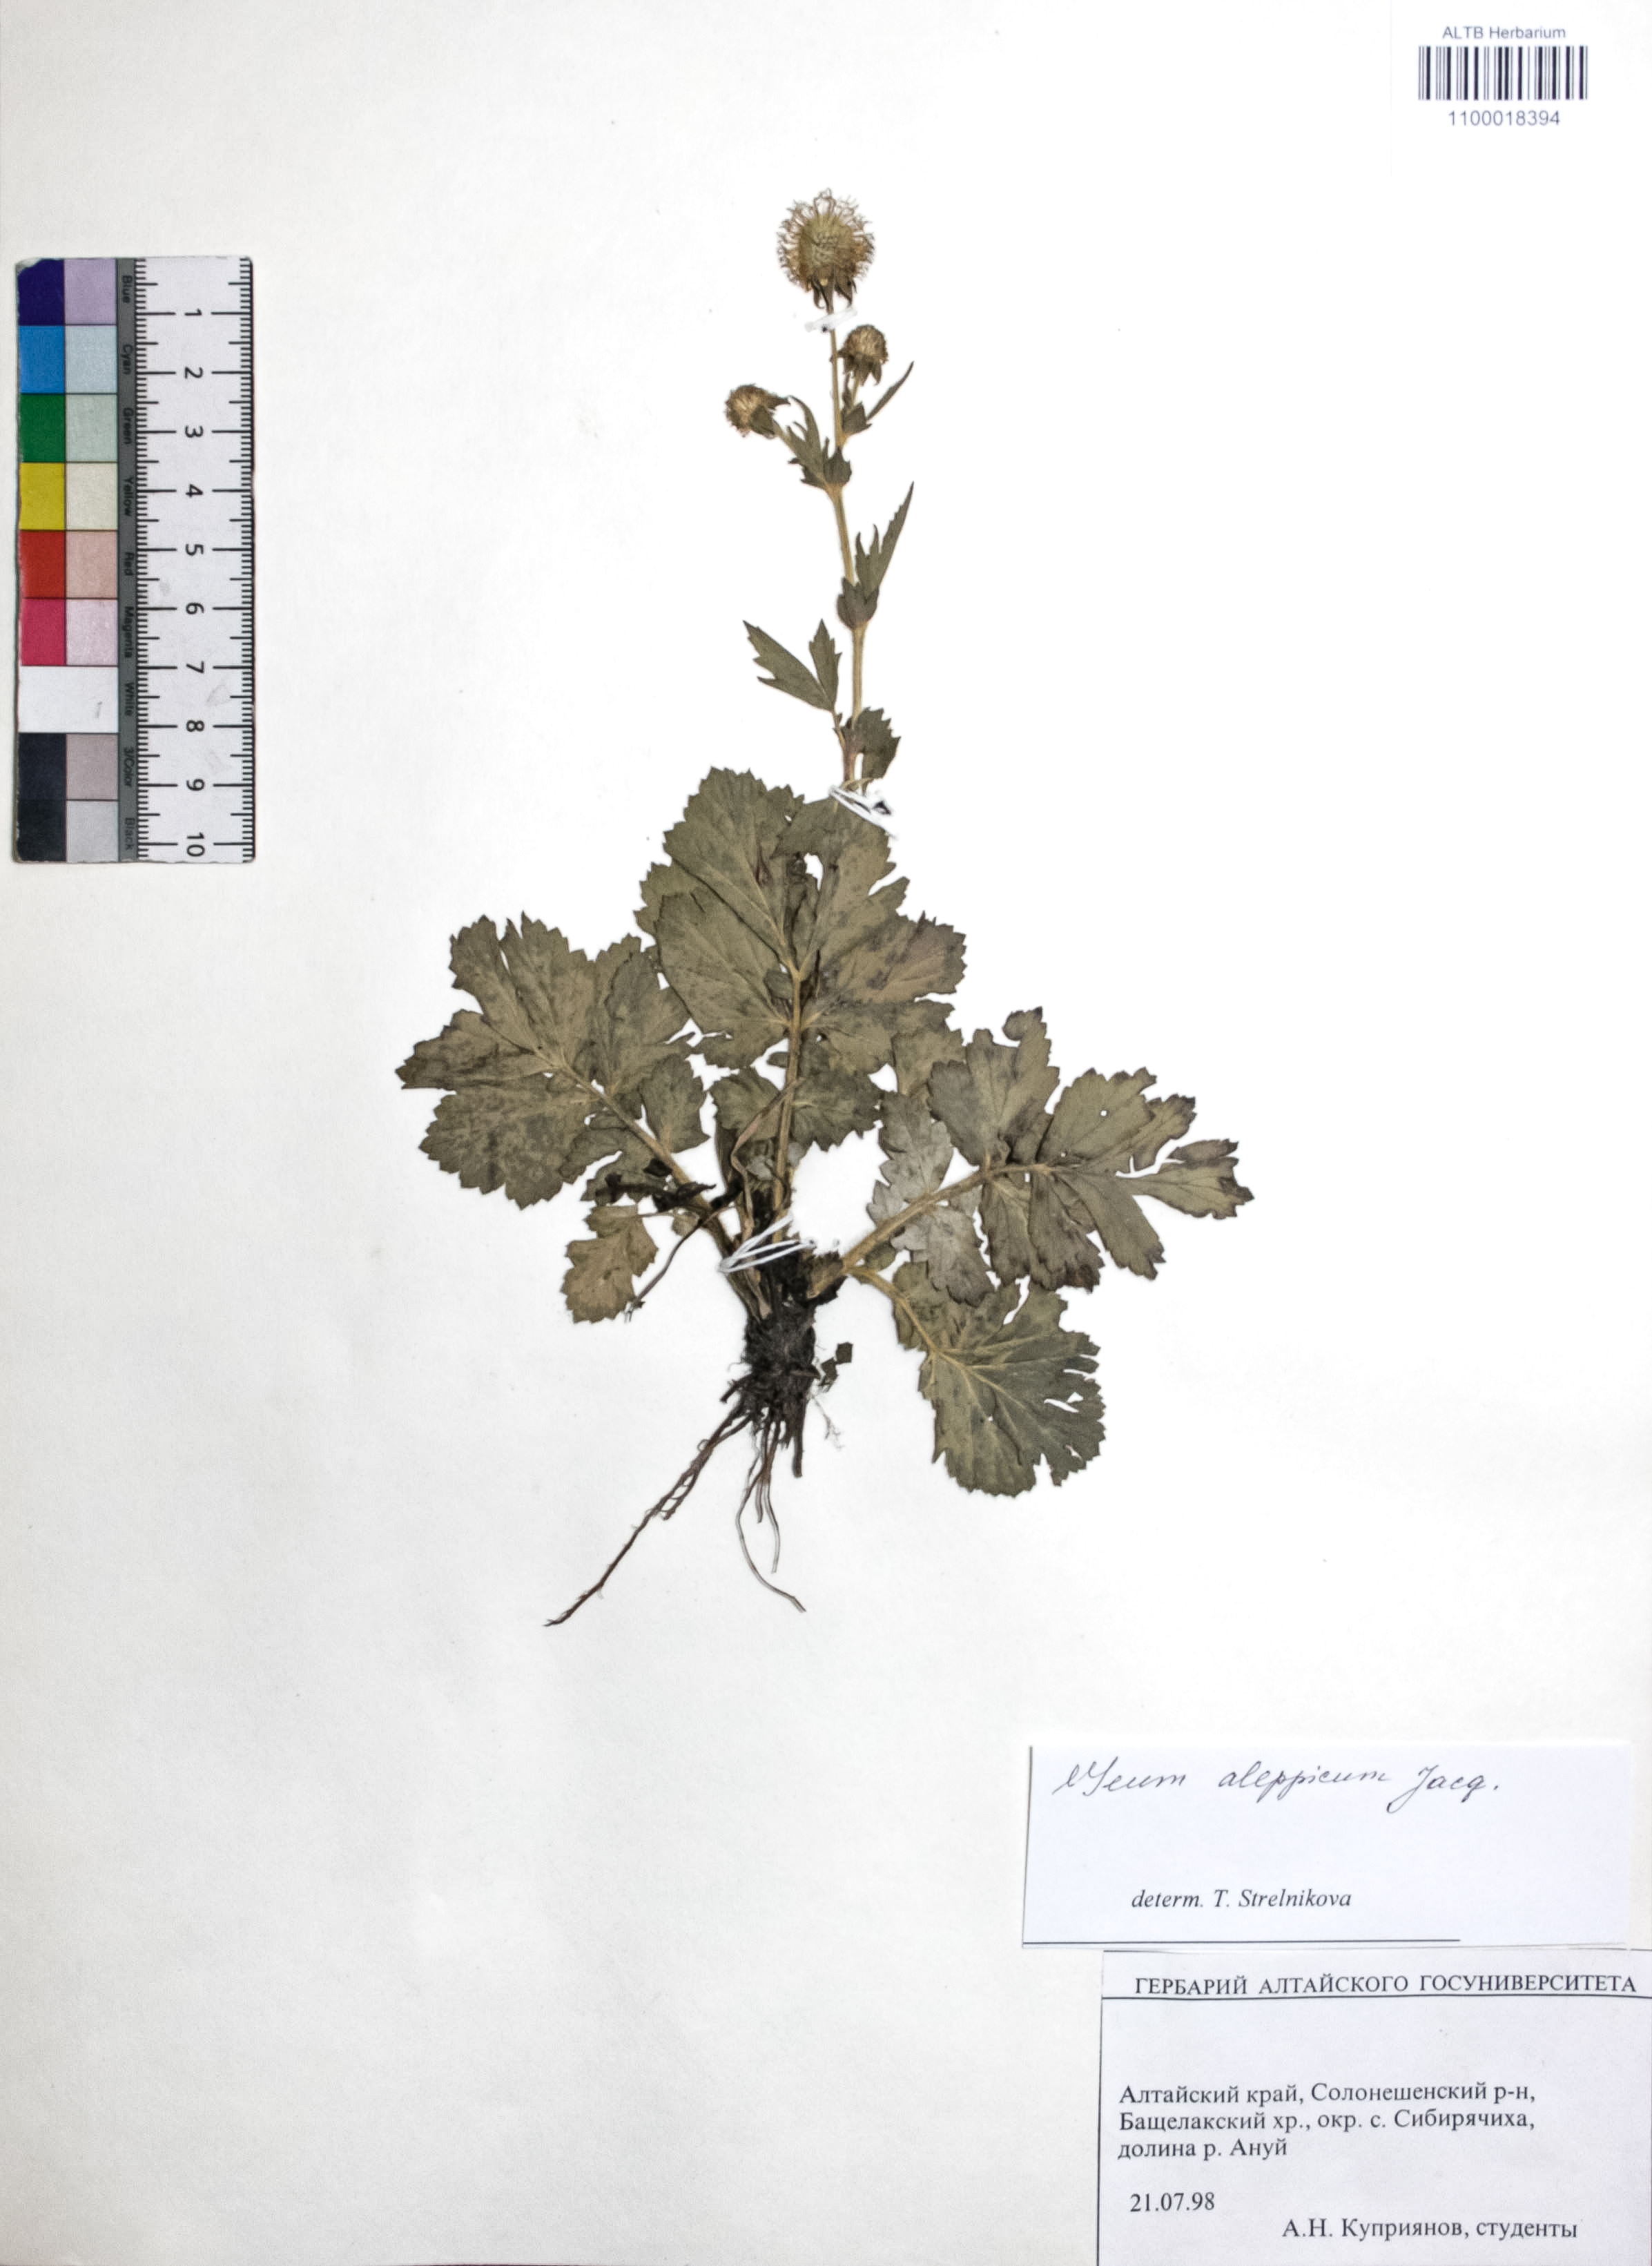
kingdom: Plantae
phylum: Tracheophyta
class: Magnoliopsida
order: Rosales
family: Rosaceae
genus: Geum
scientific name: Geum aleppicum
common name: Yellow avens
